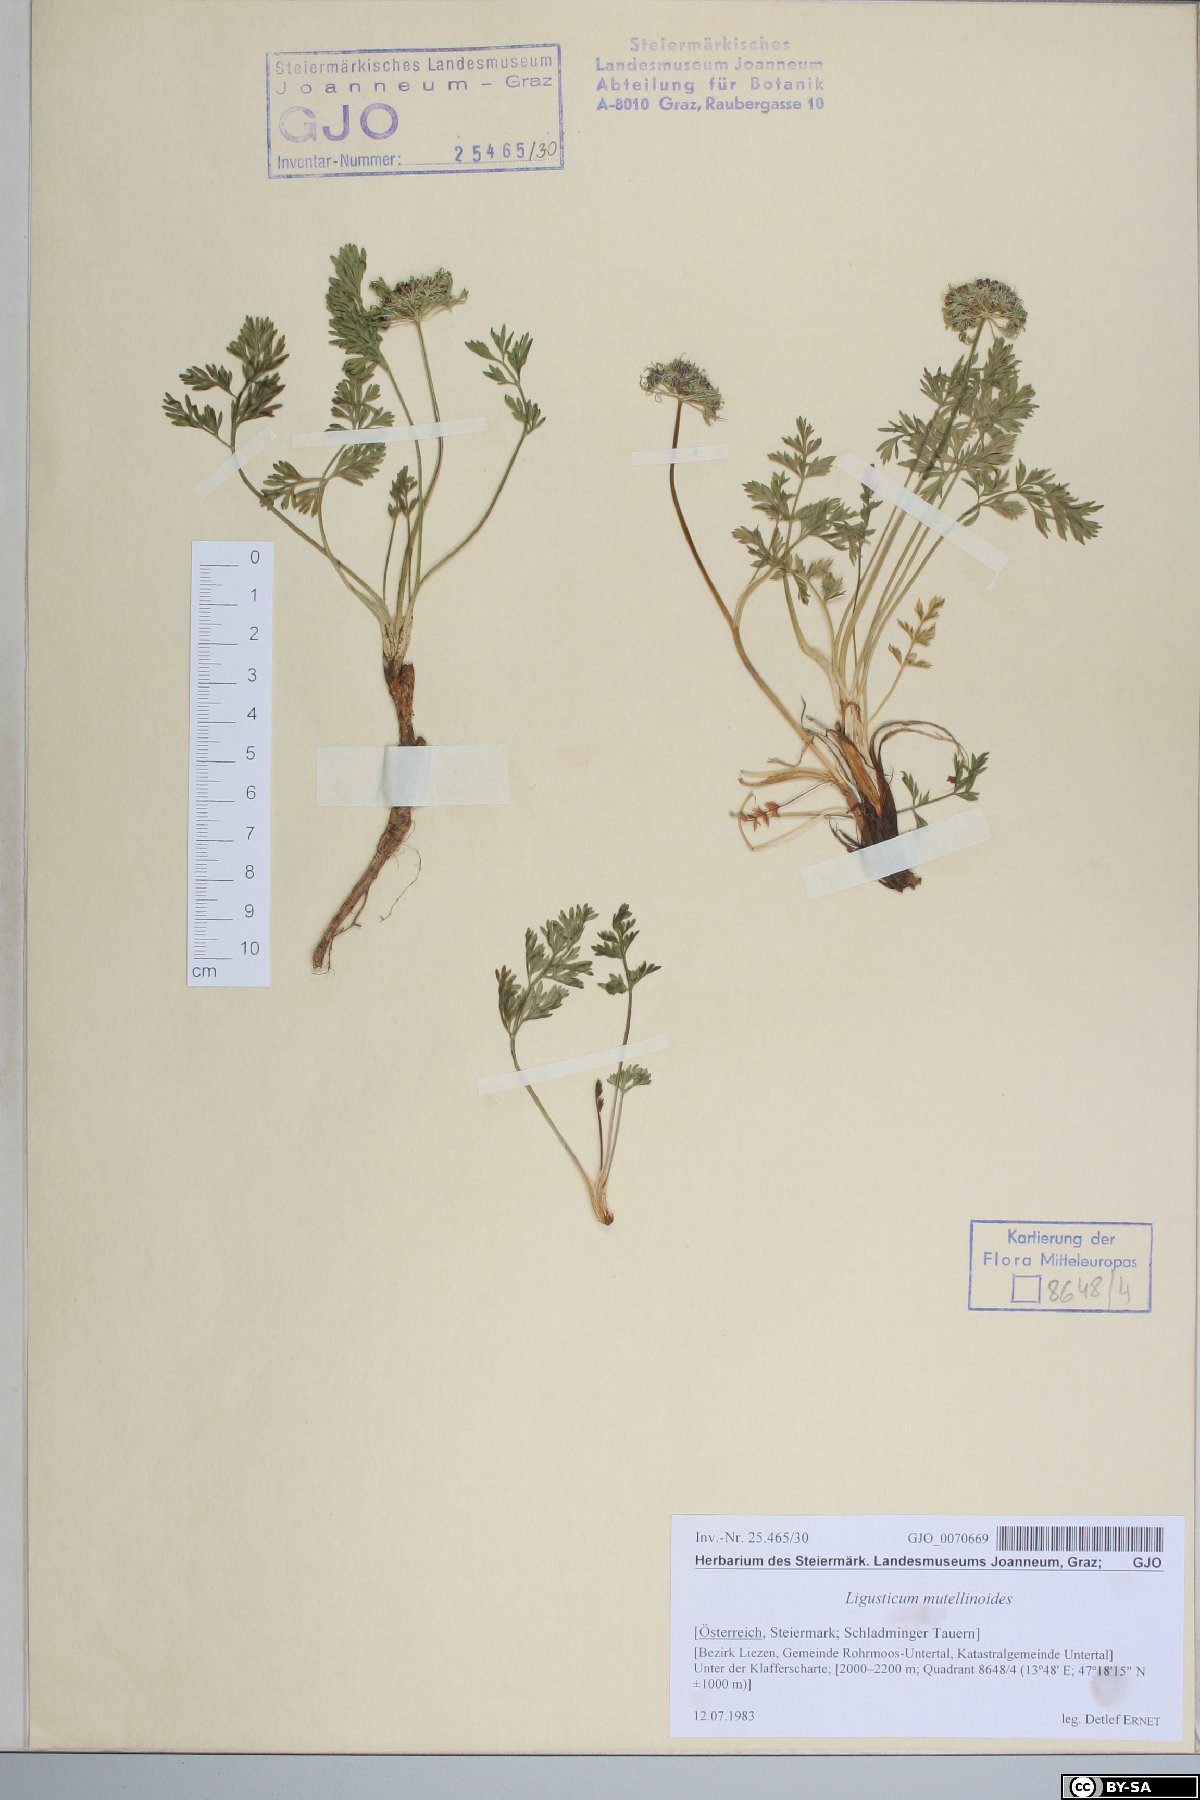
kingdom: Plantae
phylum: Tracheophyta
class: Magnoliopsida
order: Apiales
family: Apiaceae
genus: Pachypleurum
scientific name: Pachypleurum mutellinoides
